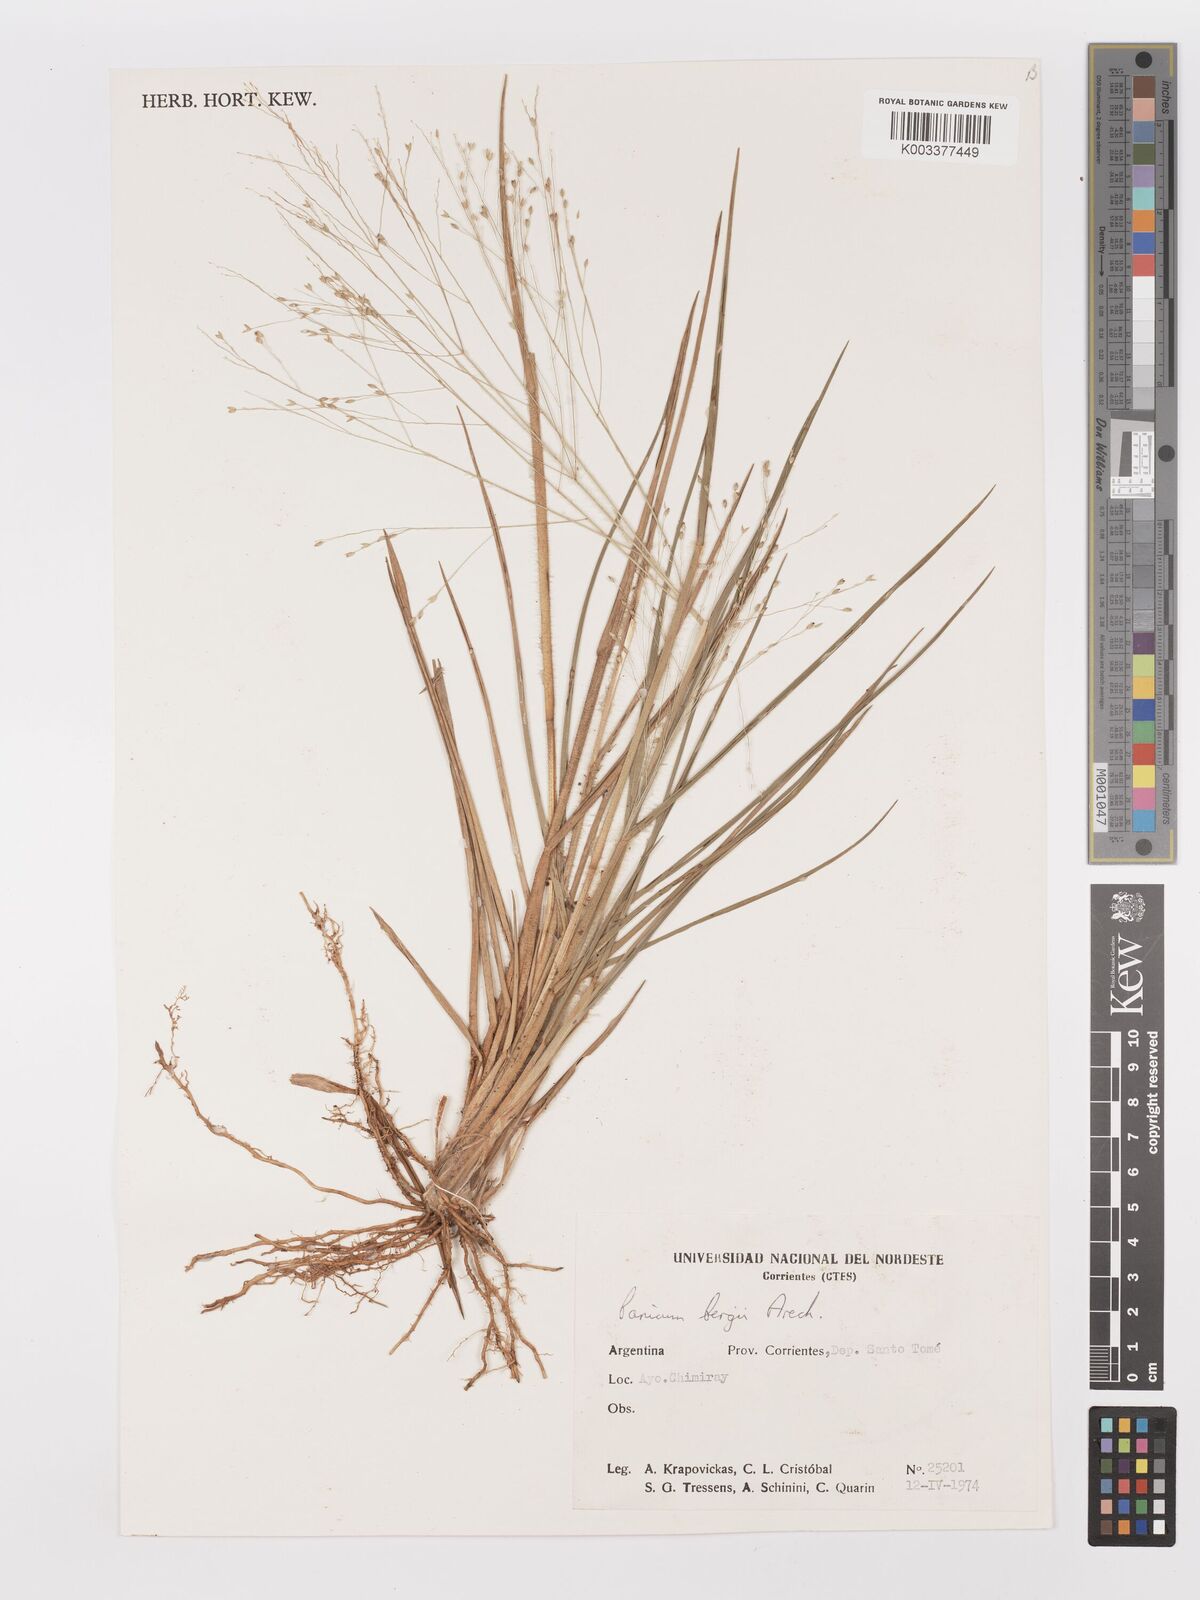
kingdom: Plantae
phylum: Tracheophyta
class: Liliopsida
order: Poales
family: Poaceae
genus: Panicum
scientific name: Panicum bergii
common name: Berg's panicgrass
